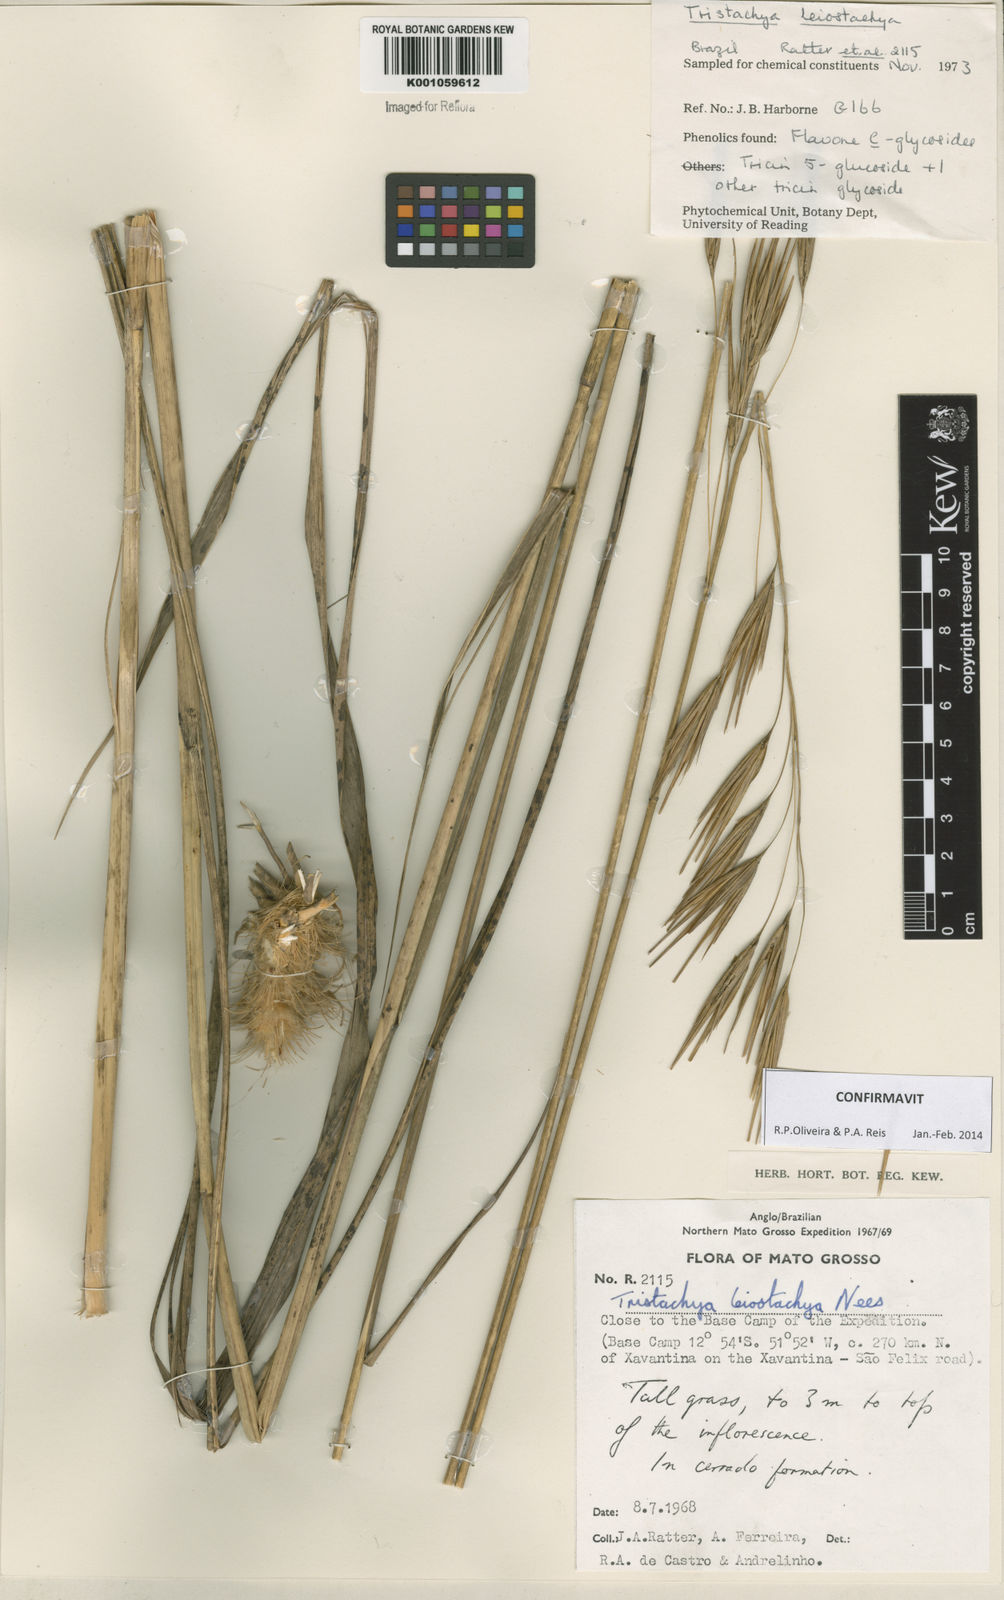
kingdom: Plantae
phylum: Tracheophyta
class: Liliopsida
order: Poales
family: Poaceae
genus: Tristachya
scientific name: Tristachya leiostachya
